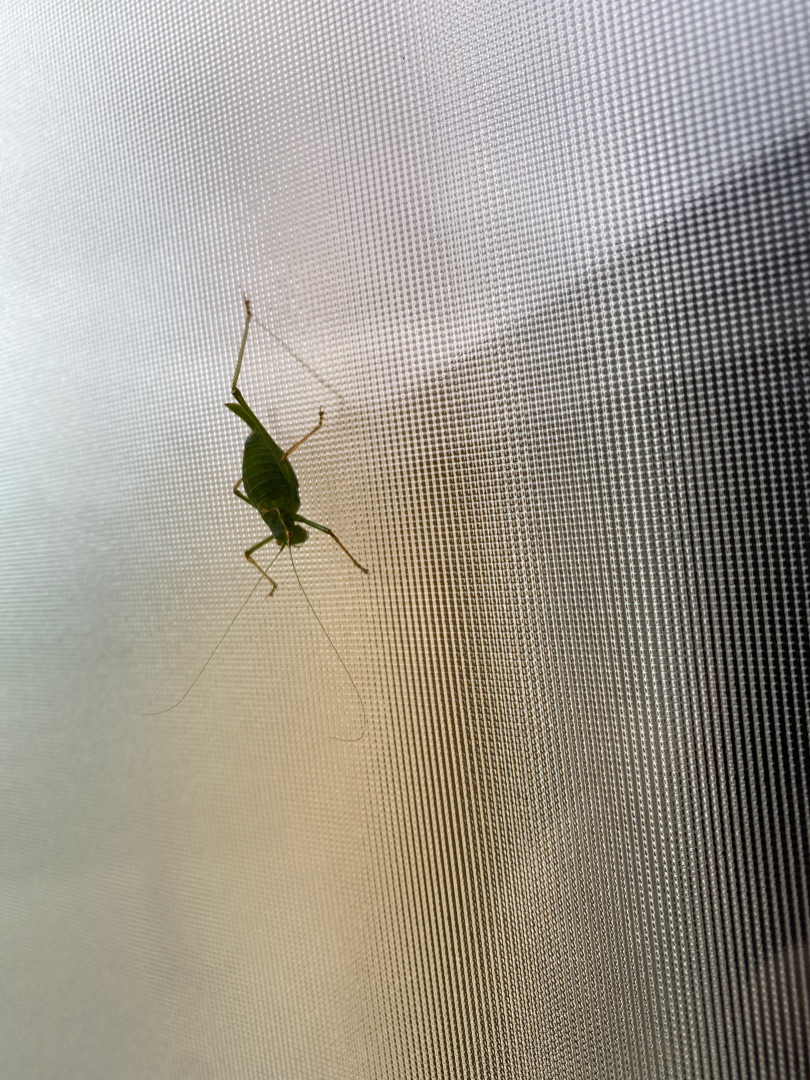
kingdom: Animalia
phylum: Arthropoda
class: Insecta
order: Orthoptera
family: Tettigoniidae
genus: Leptophyes
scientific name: Leptophyes punctatissima
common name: Krumknivgræshoppe
